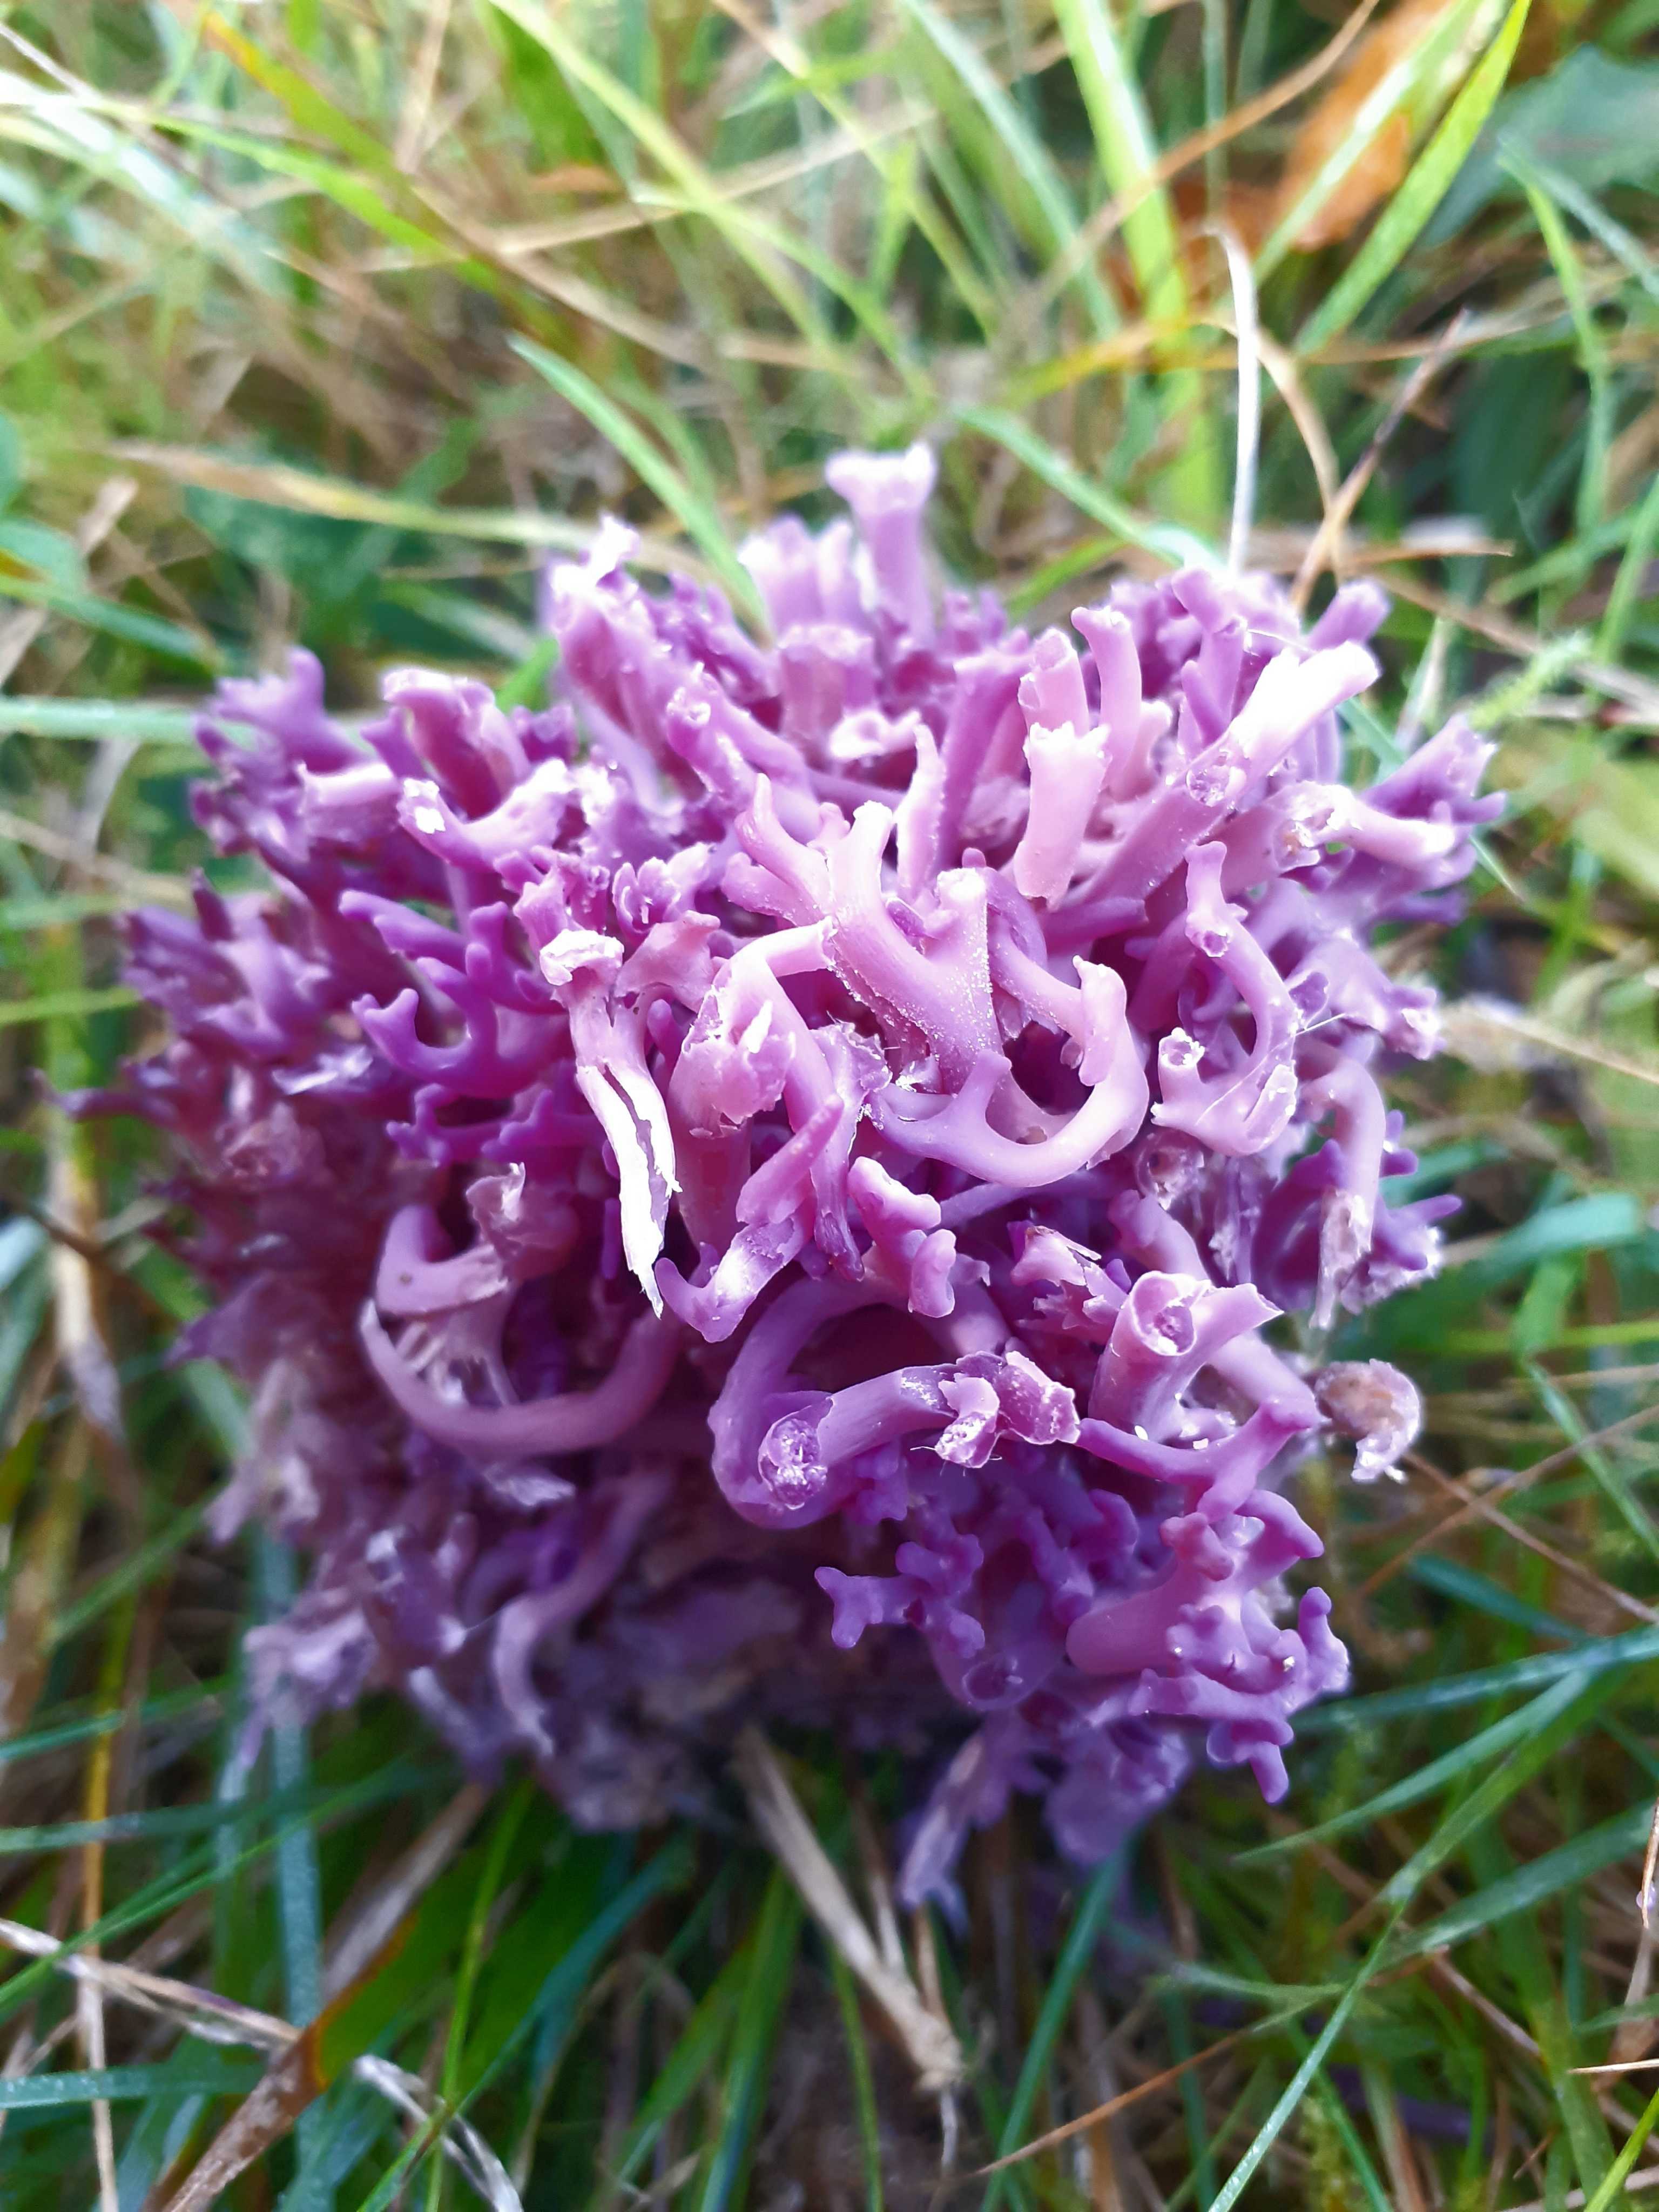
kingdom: Fungi
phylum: Basidiomycota
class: Agaricomycetes
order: Agaricales
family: Clavariaceae
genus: Clavaria
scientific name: Clavaria zollingeri
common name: purpur-køllesvamp
